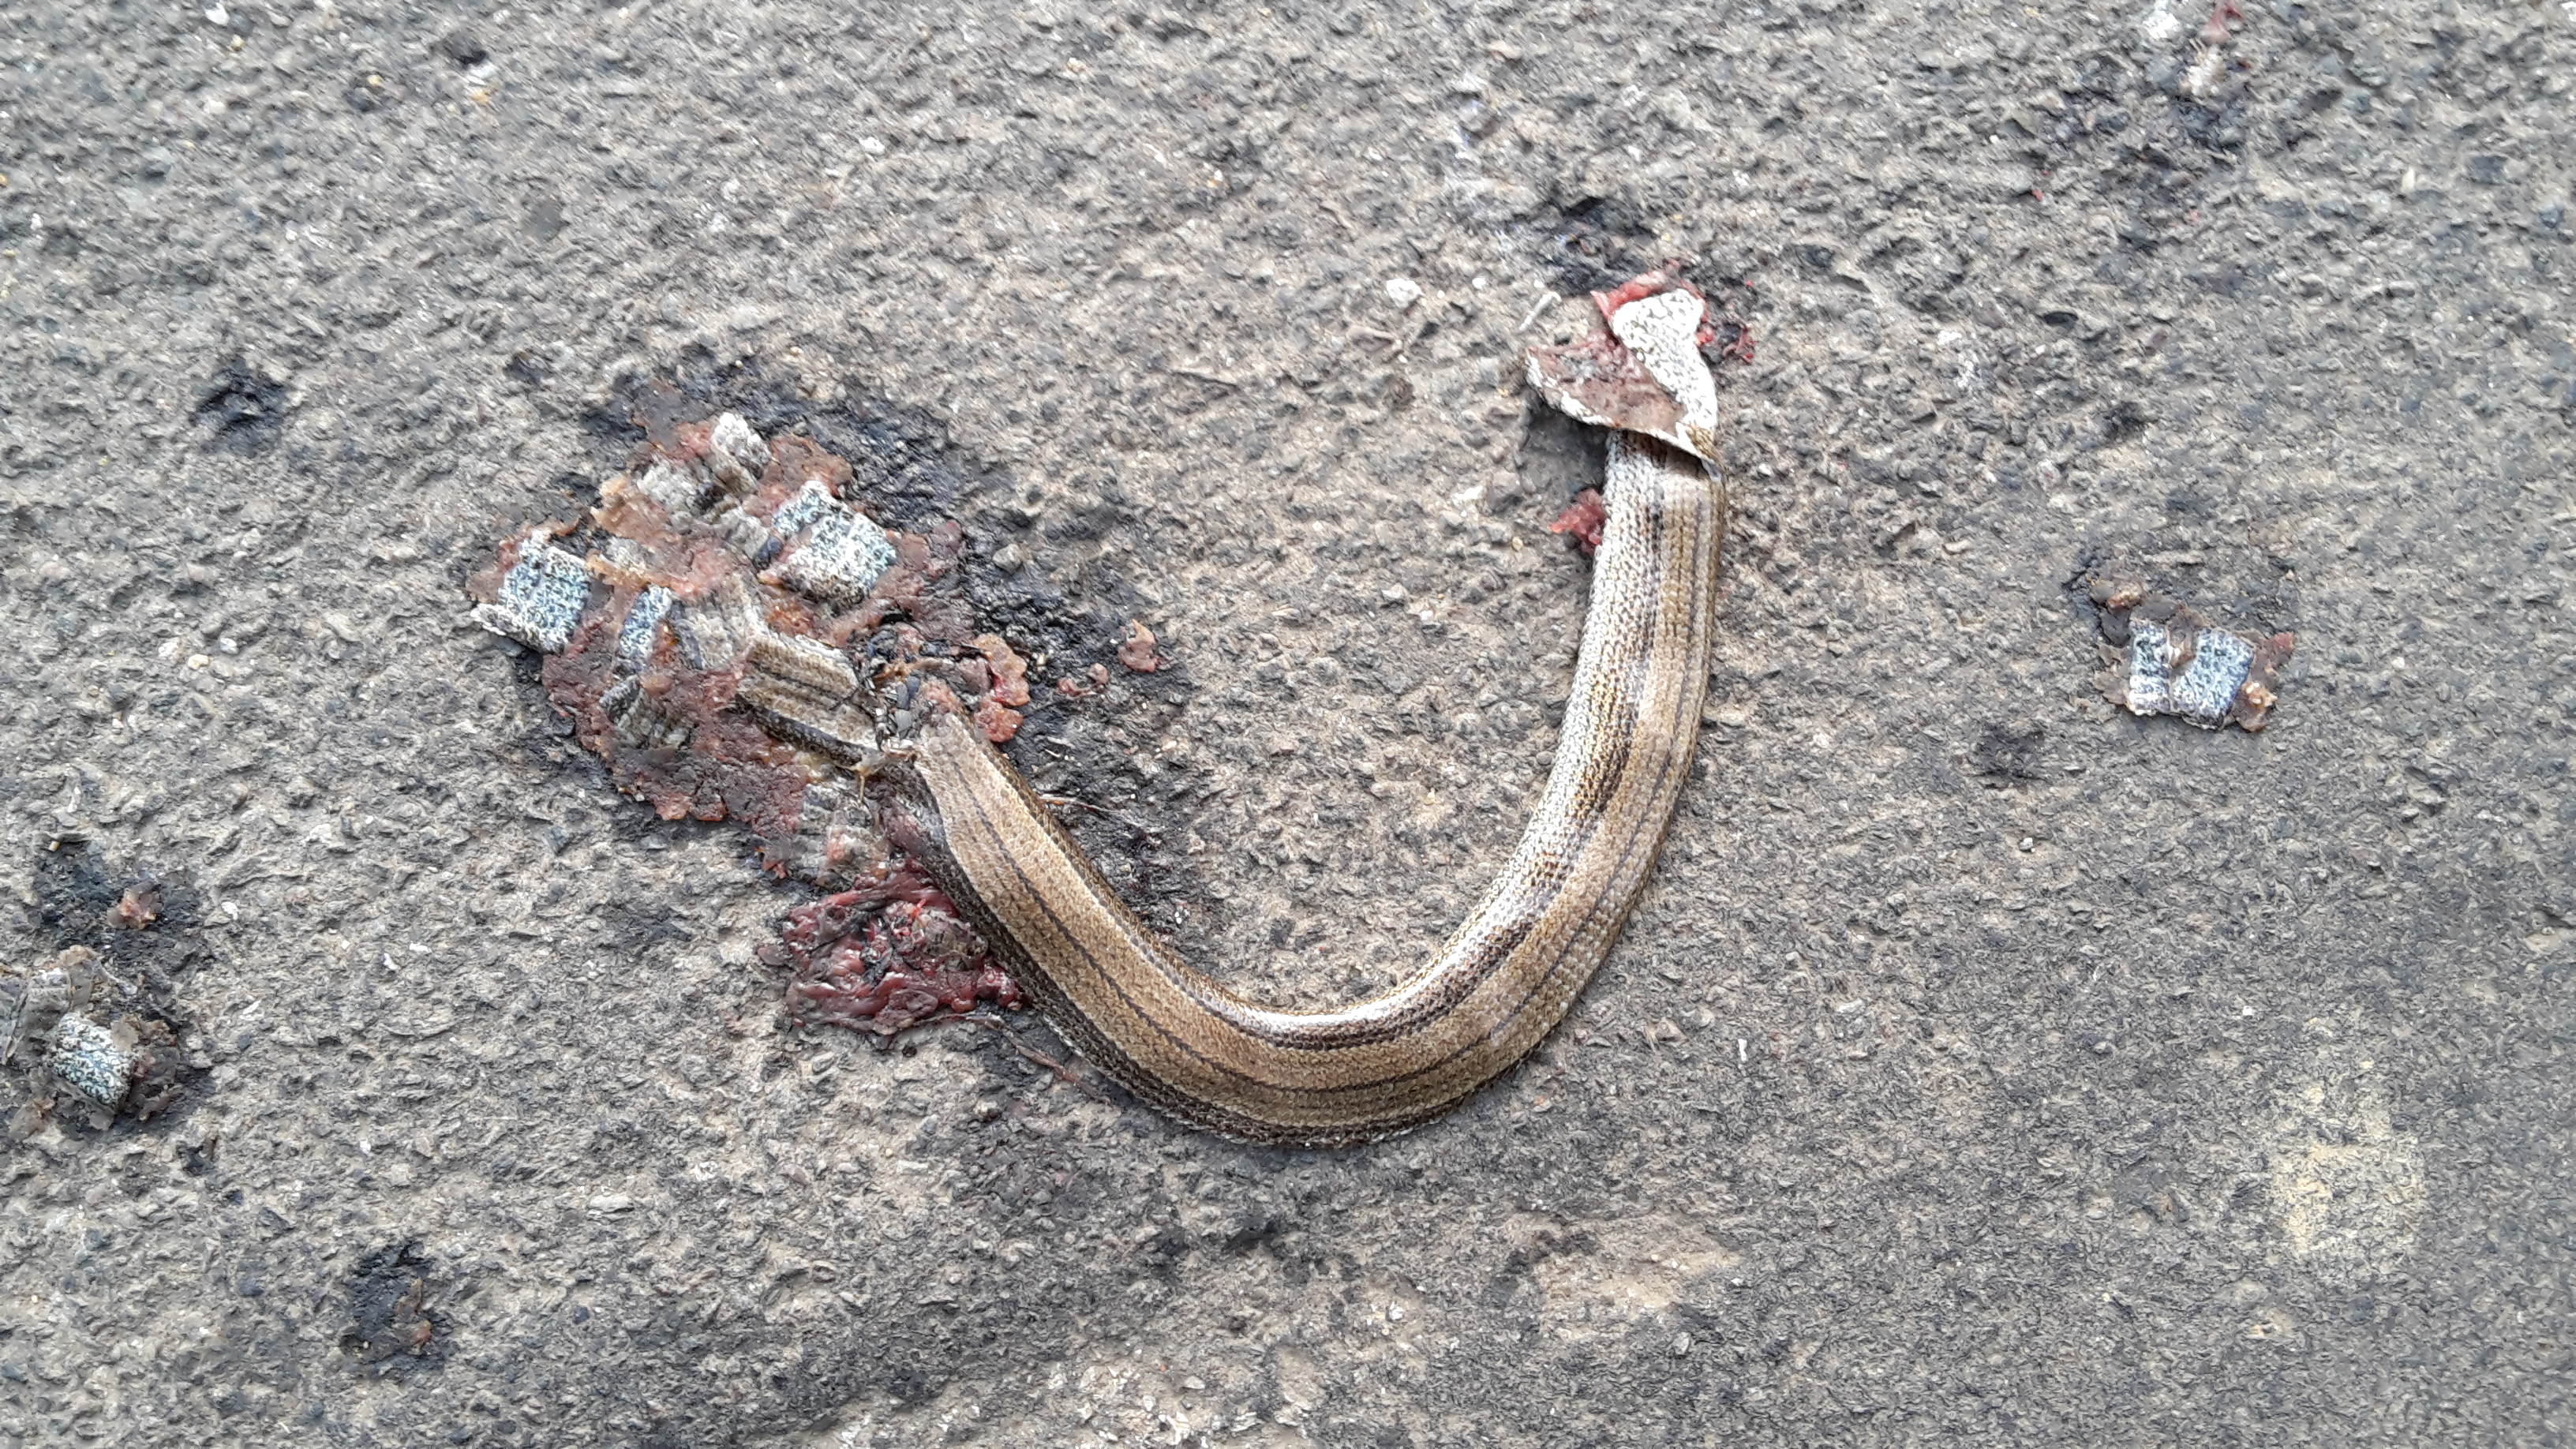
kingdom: Animalia
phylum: Chordata
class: Squamata
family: Anguidae
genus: Anguis
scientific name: Anguis fragilis
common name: Slow worm
